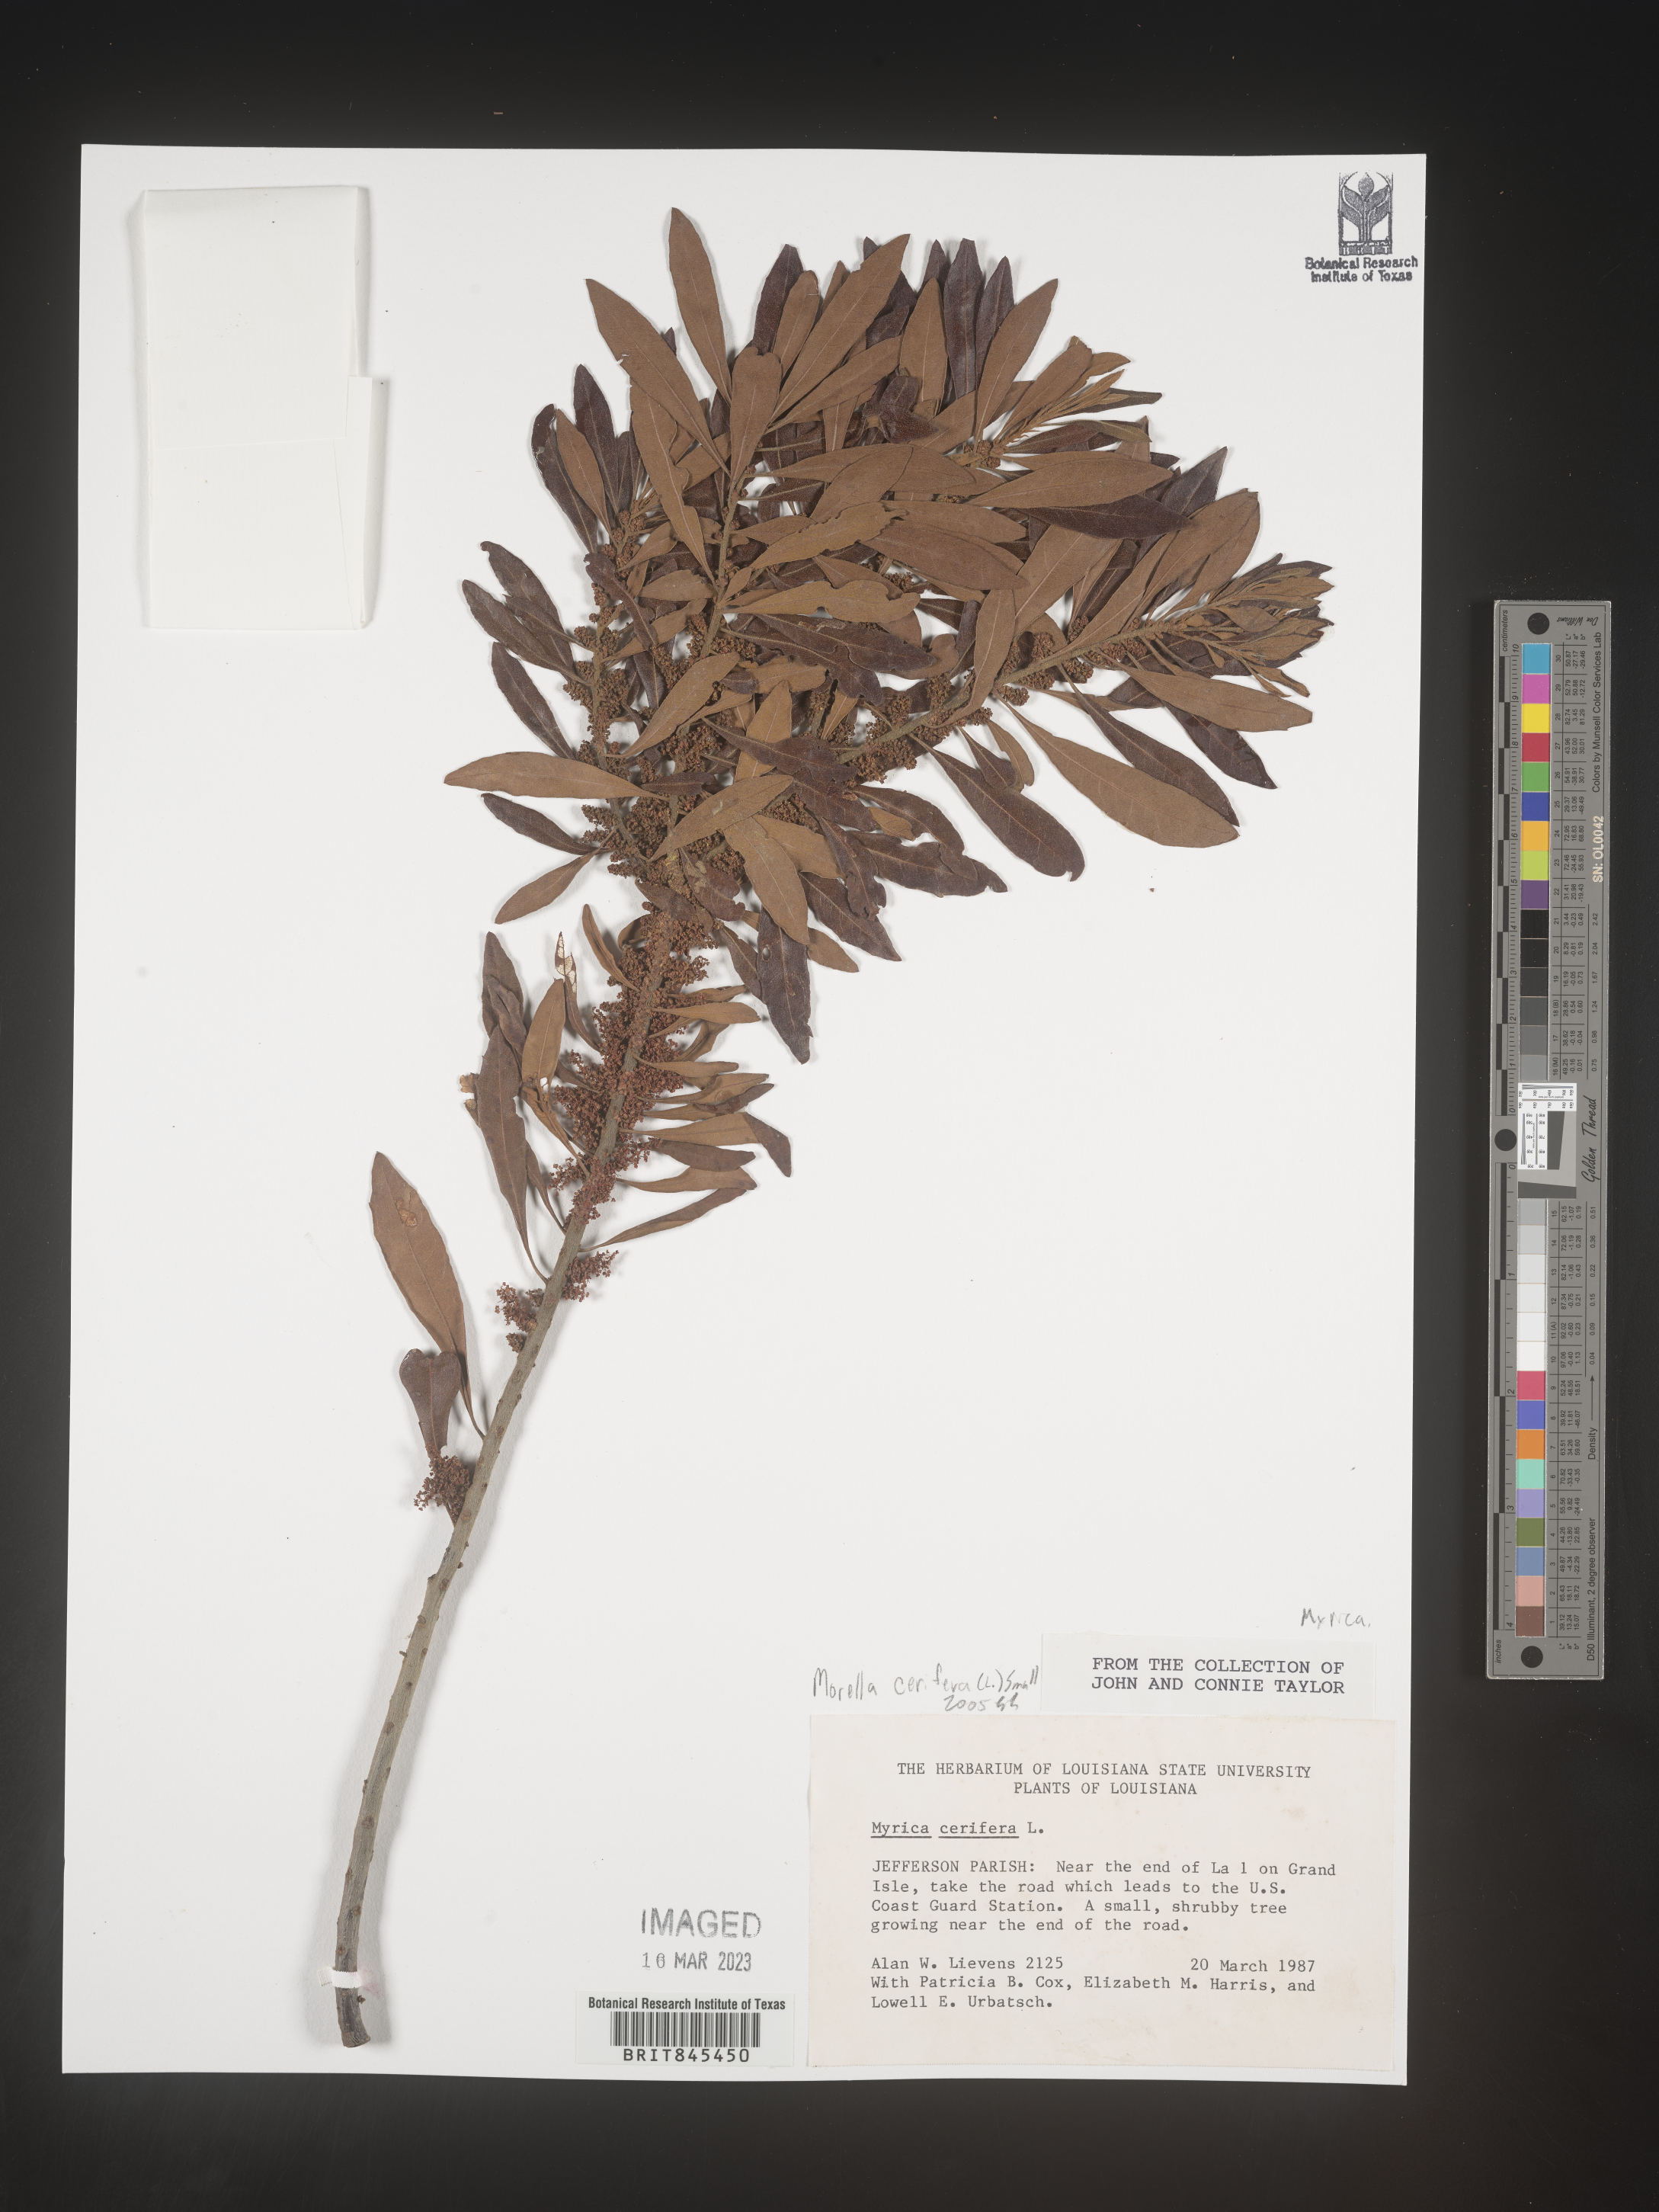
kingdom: Plantae
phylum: Tracheophyta
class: Magnoliopsida
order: Fagales
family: Myricaceae
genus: Morella
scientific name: Morella cerifera
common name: Wax myrtle
